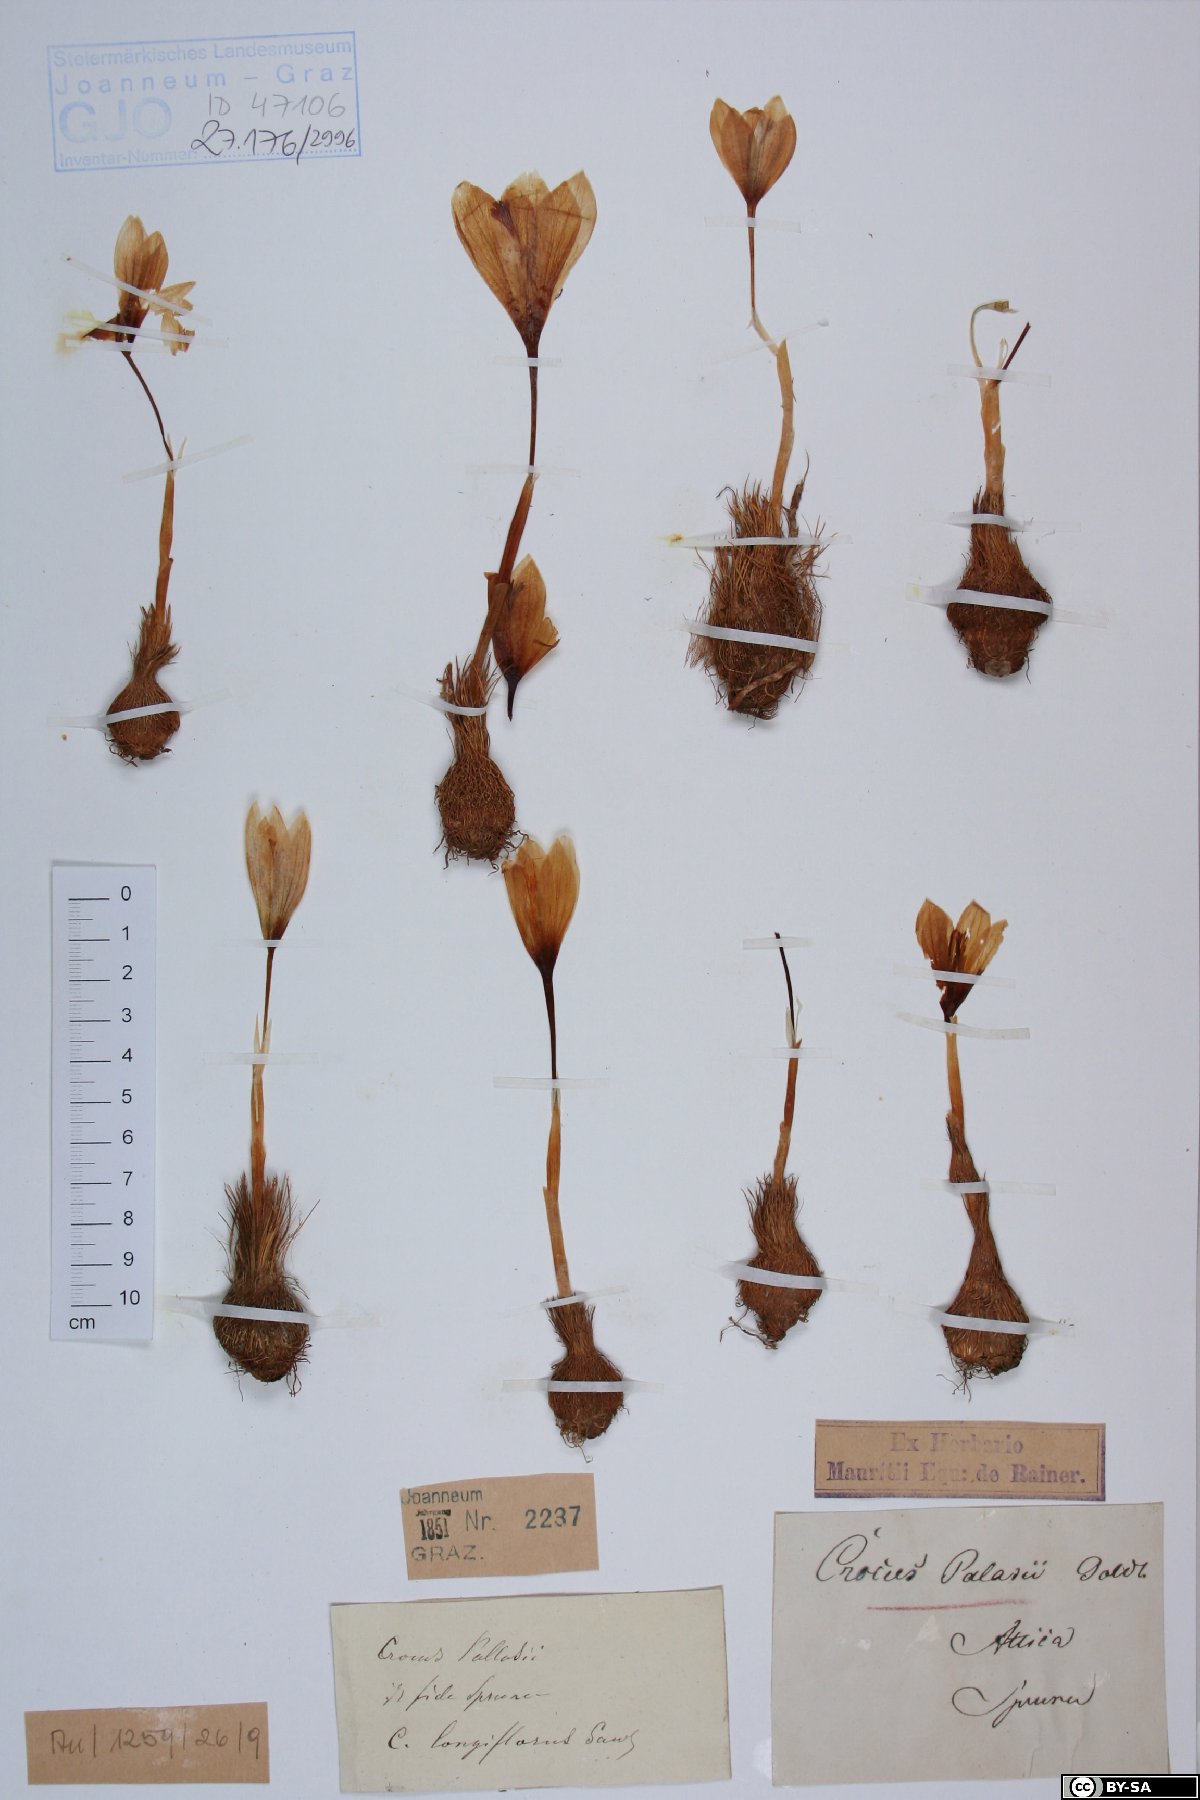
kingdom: Plantae
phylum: Tracheophyta
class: Liliopsida
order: Asparagales
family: Iridaceae
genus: Crocus
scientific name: Crocus longiflorus
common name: Italian crocus
